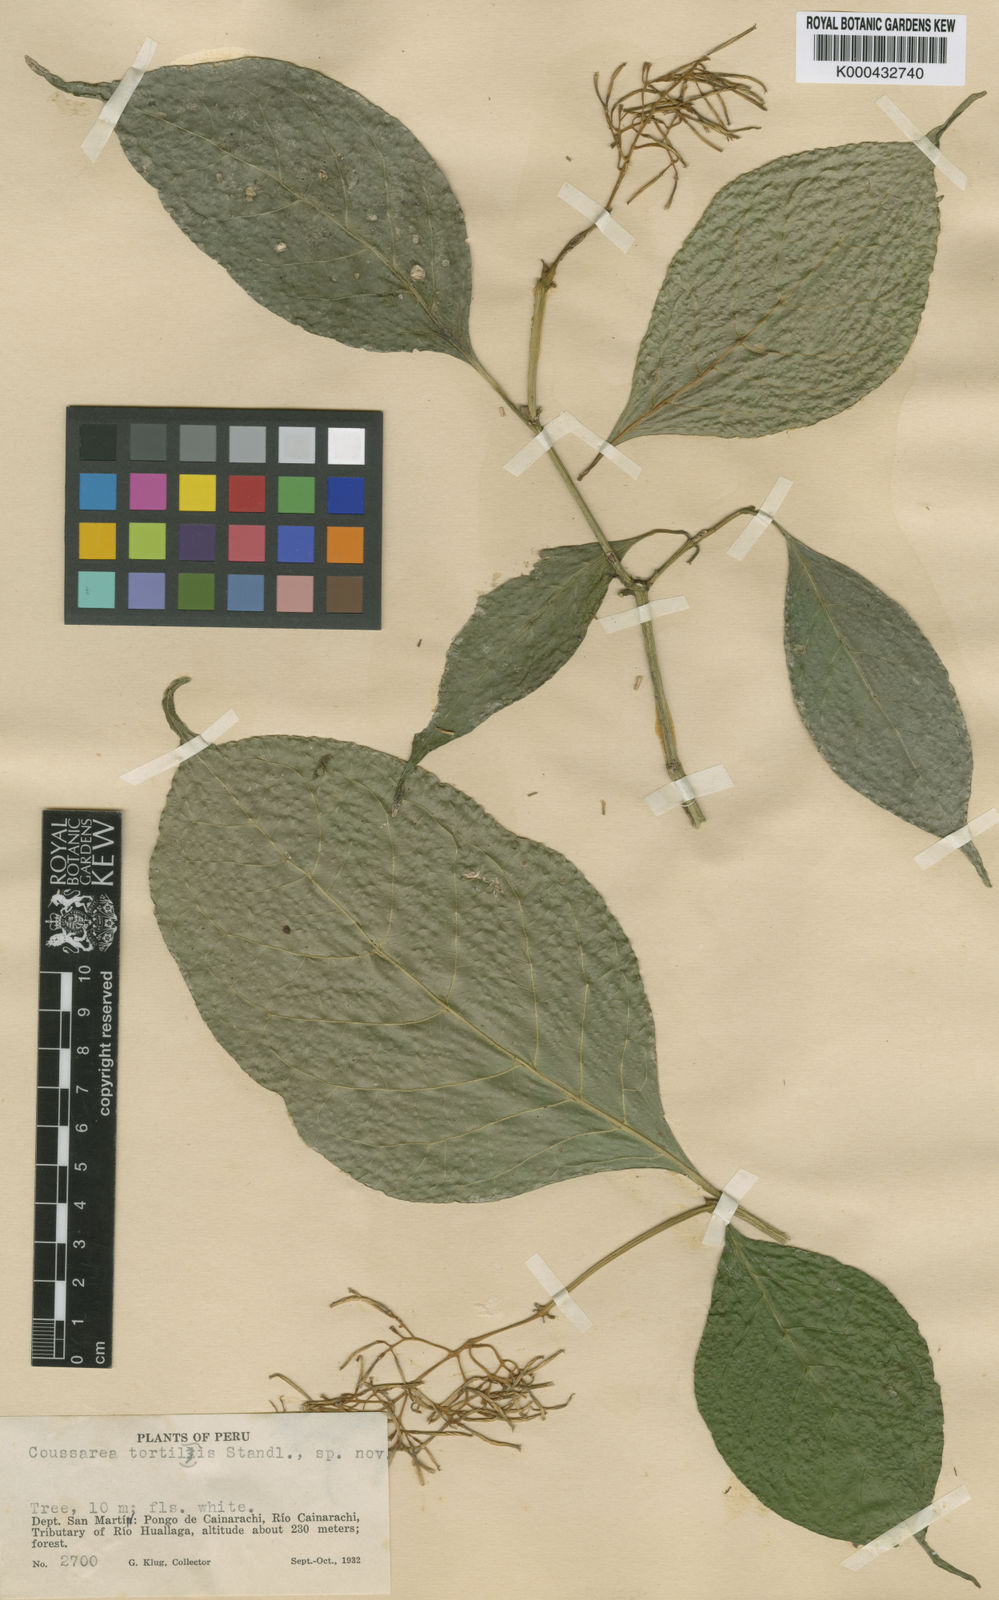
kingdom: Plantae
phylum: Tracheophyta
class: Magnoliopsida
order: Gentianales
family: Rubiaceae
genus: Coussarea
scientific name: Coussarea tortilis
